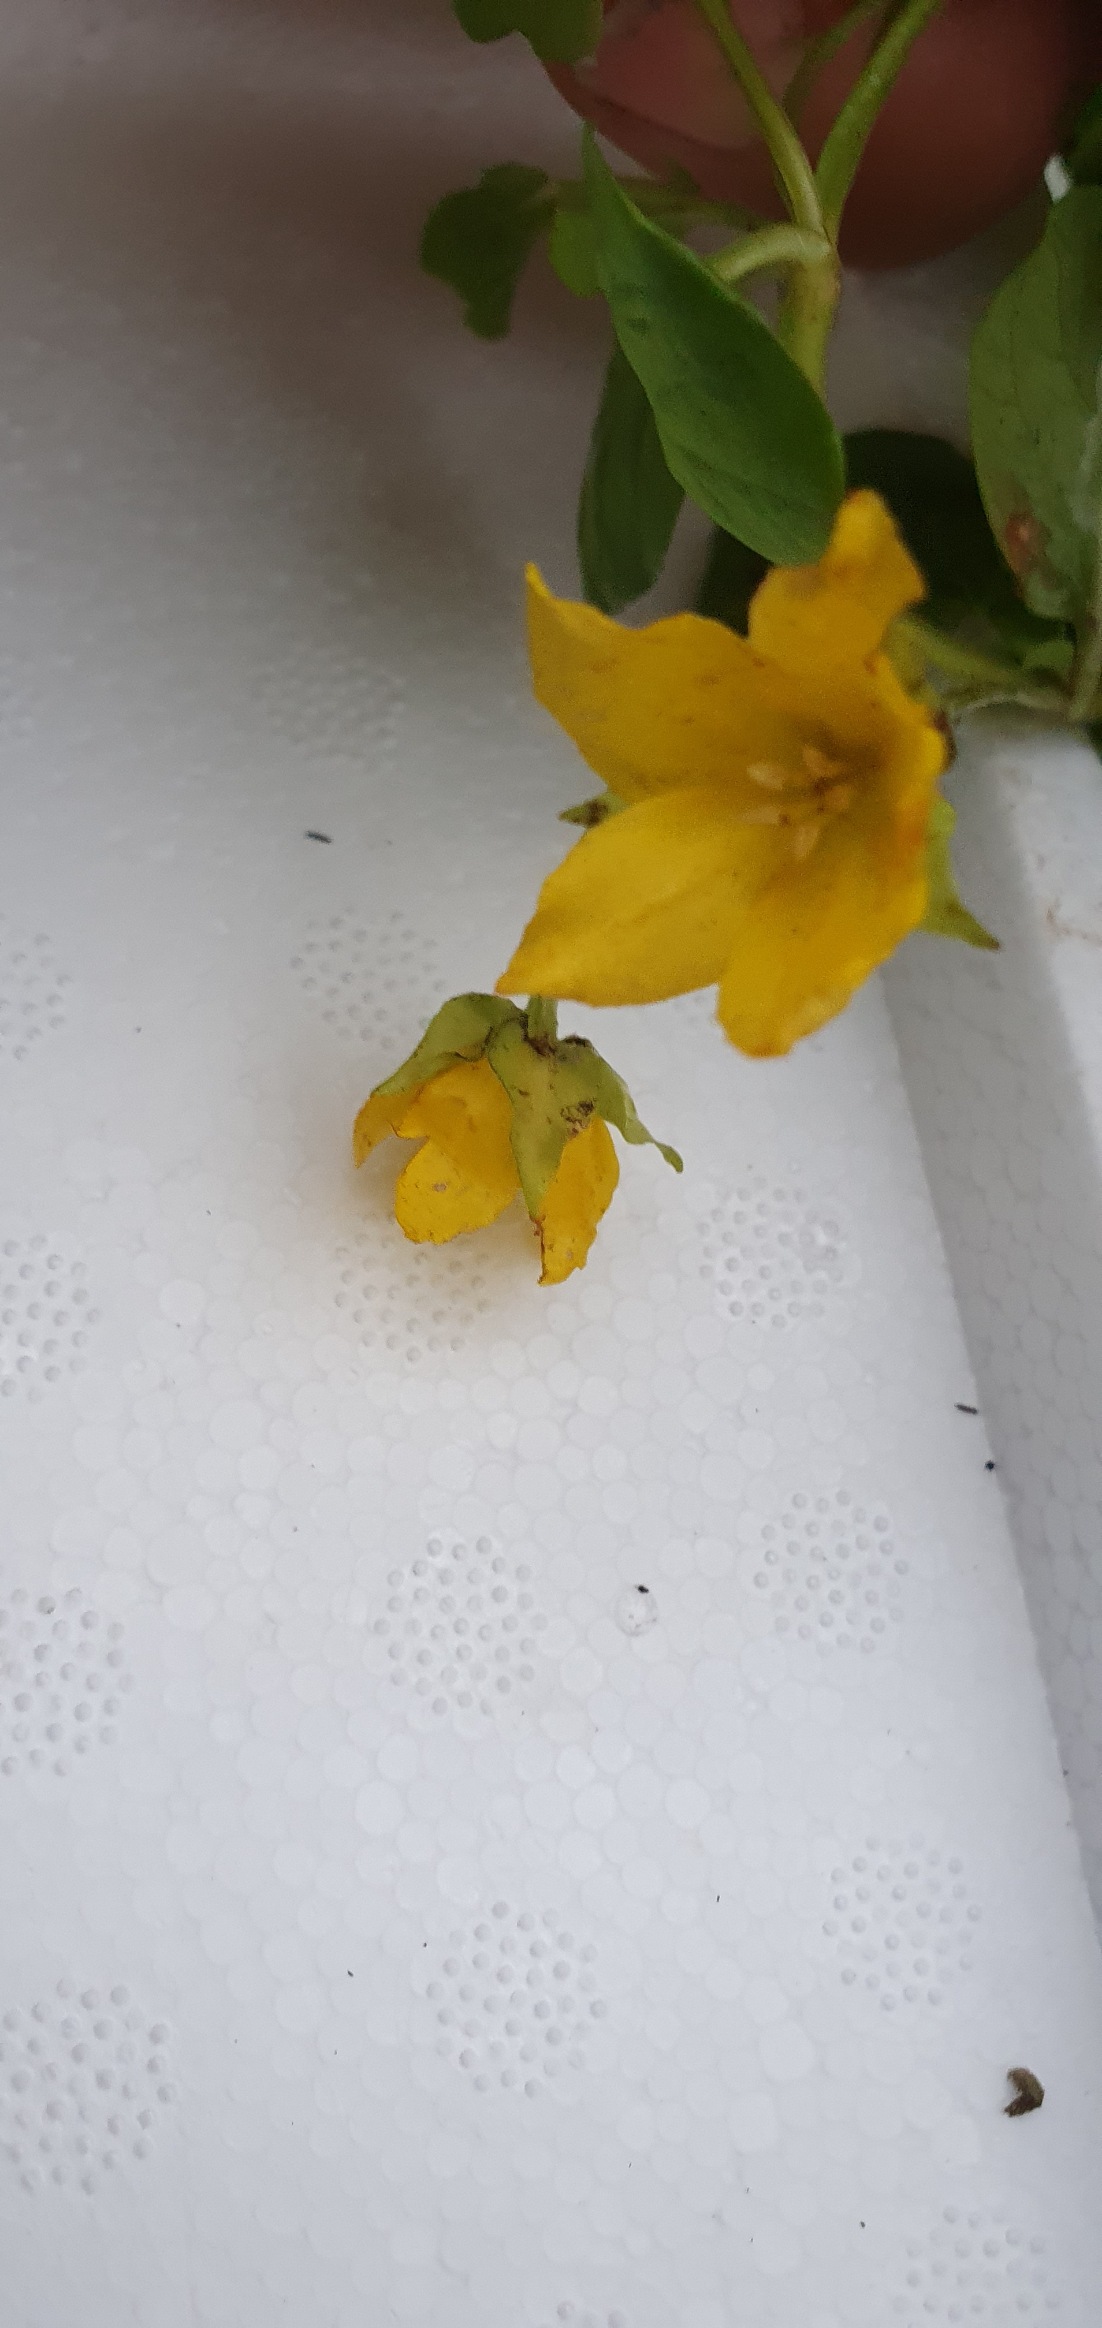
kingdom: Plantae
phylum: Tracheophyta
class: Magnoliopsida
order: Ericales
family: Primulaceae
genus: Lysimachia
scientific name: Lysimachia nummularia
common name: Pengebladet fredløs
